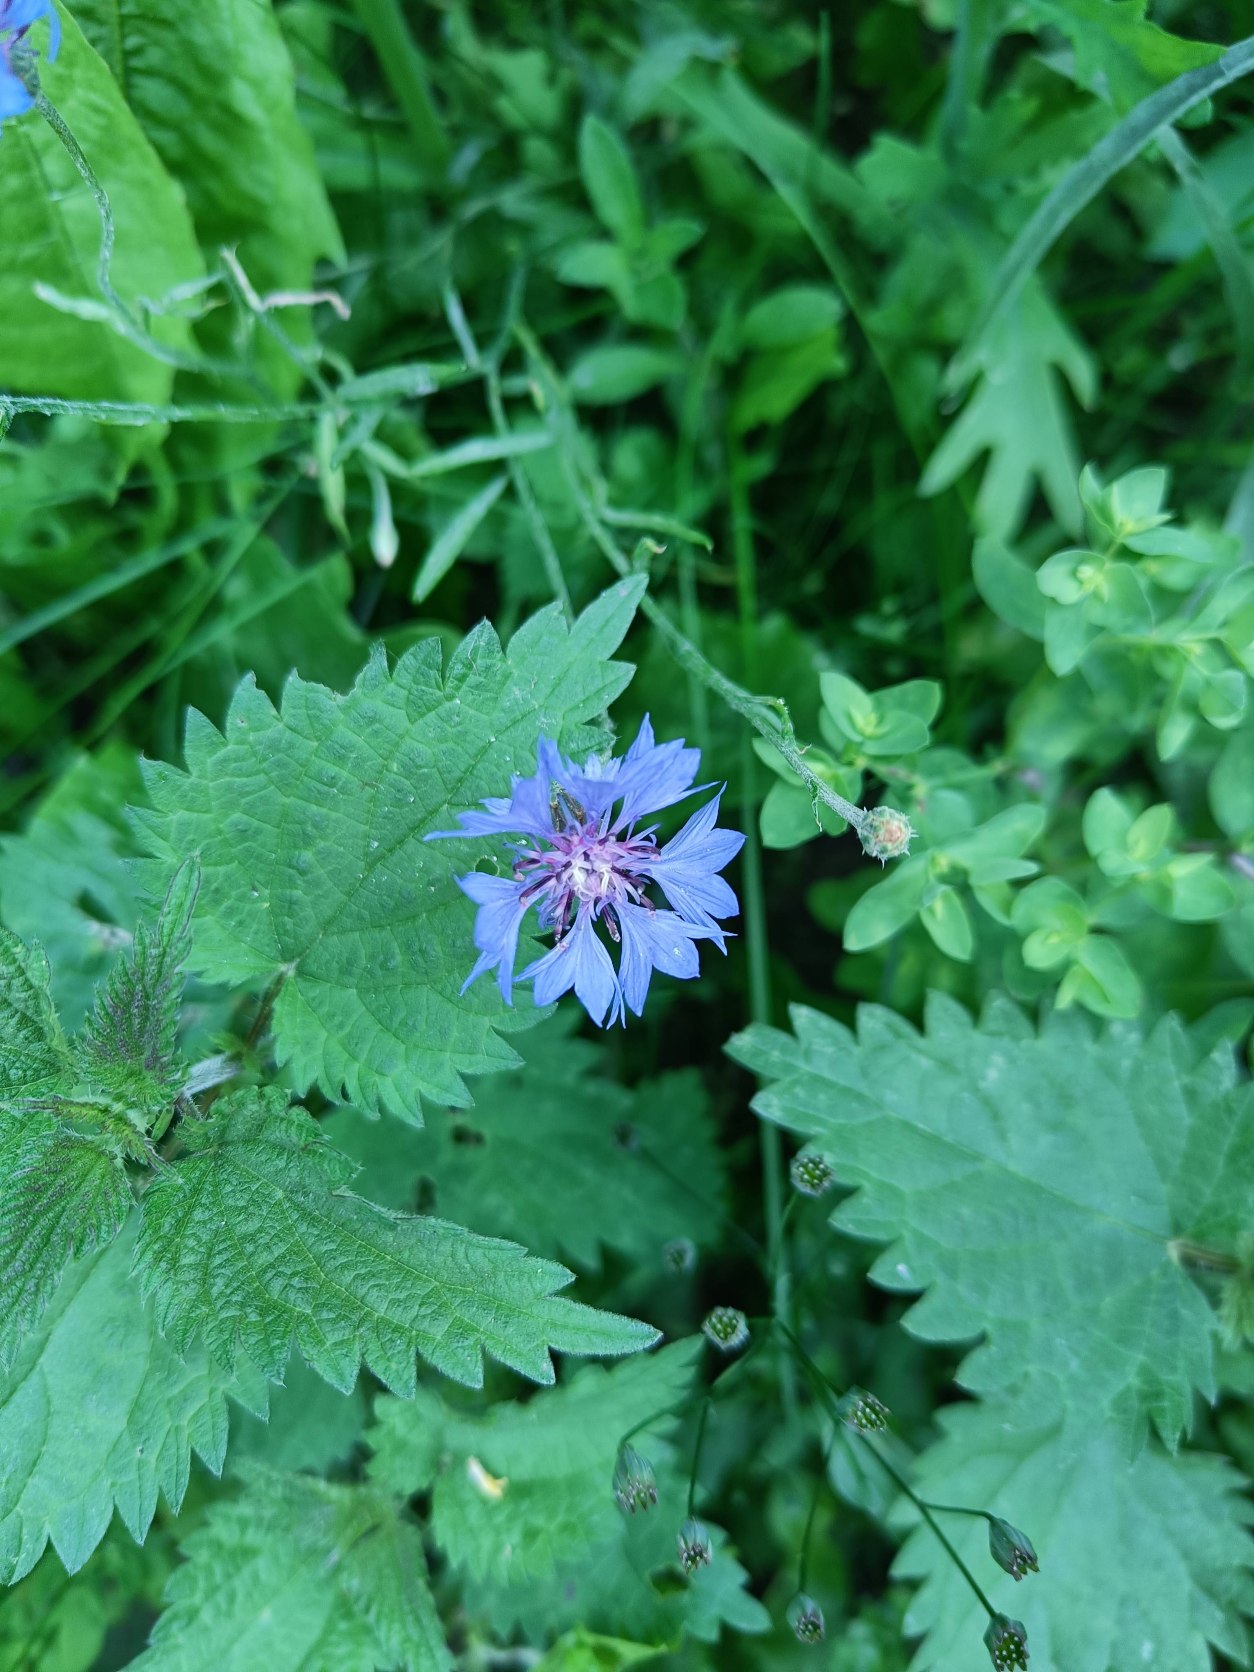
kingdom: Plantae
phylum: Tracheophyta
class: Magnoliopsida
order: Asterales
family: Asteraceae
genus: Centaurea
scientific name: Centaurea cyanus
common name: Kornblomst
